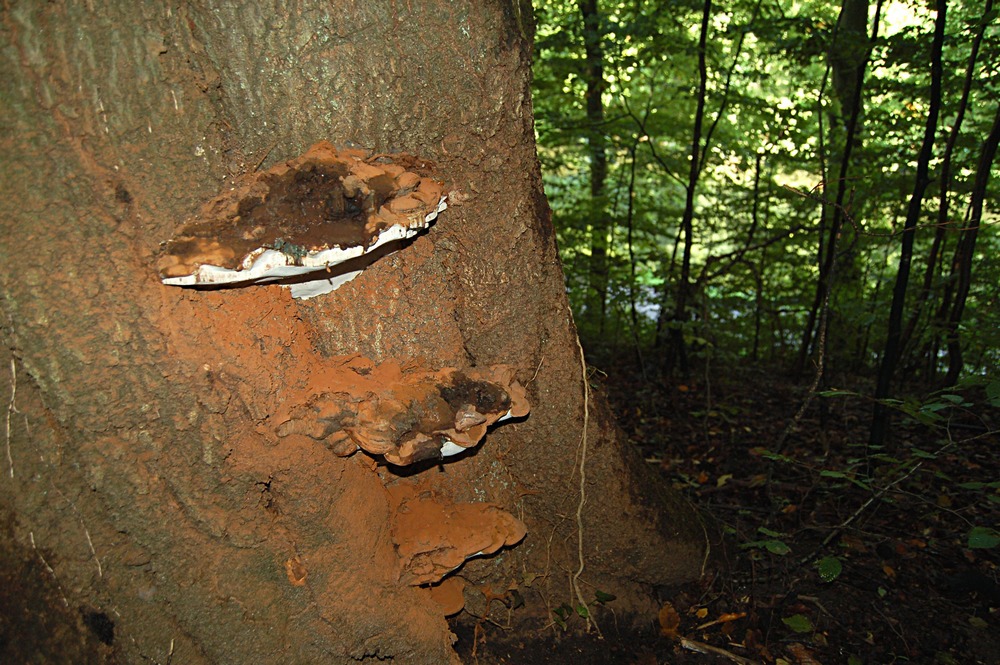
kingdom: Fungi
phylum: Basidiomycota
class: Agaricomycetes
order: Polyporales
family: Polyporaceae
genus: Ganoderma
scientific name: Ganoderma pfeifferi
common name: kobberrød lakporesvamp
